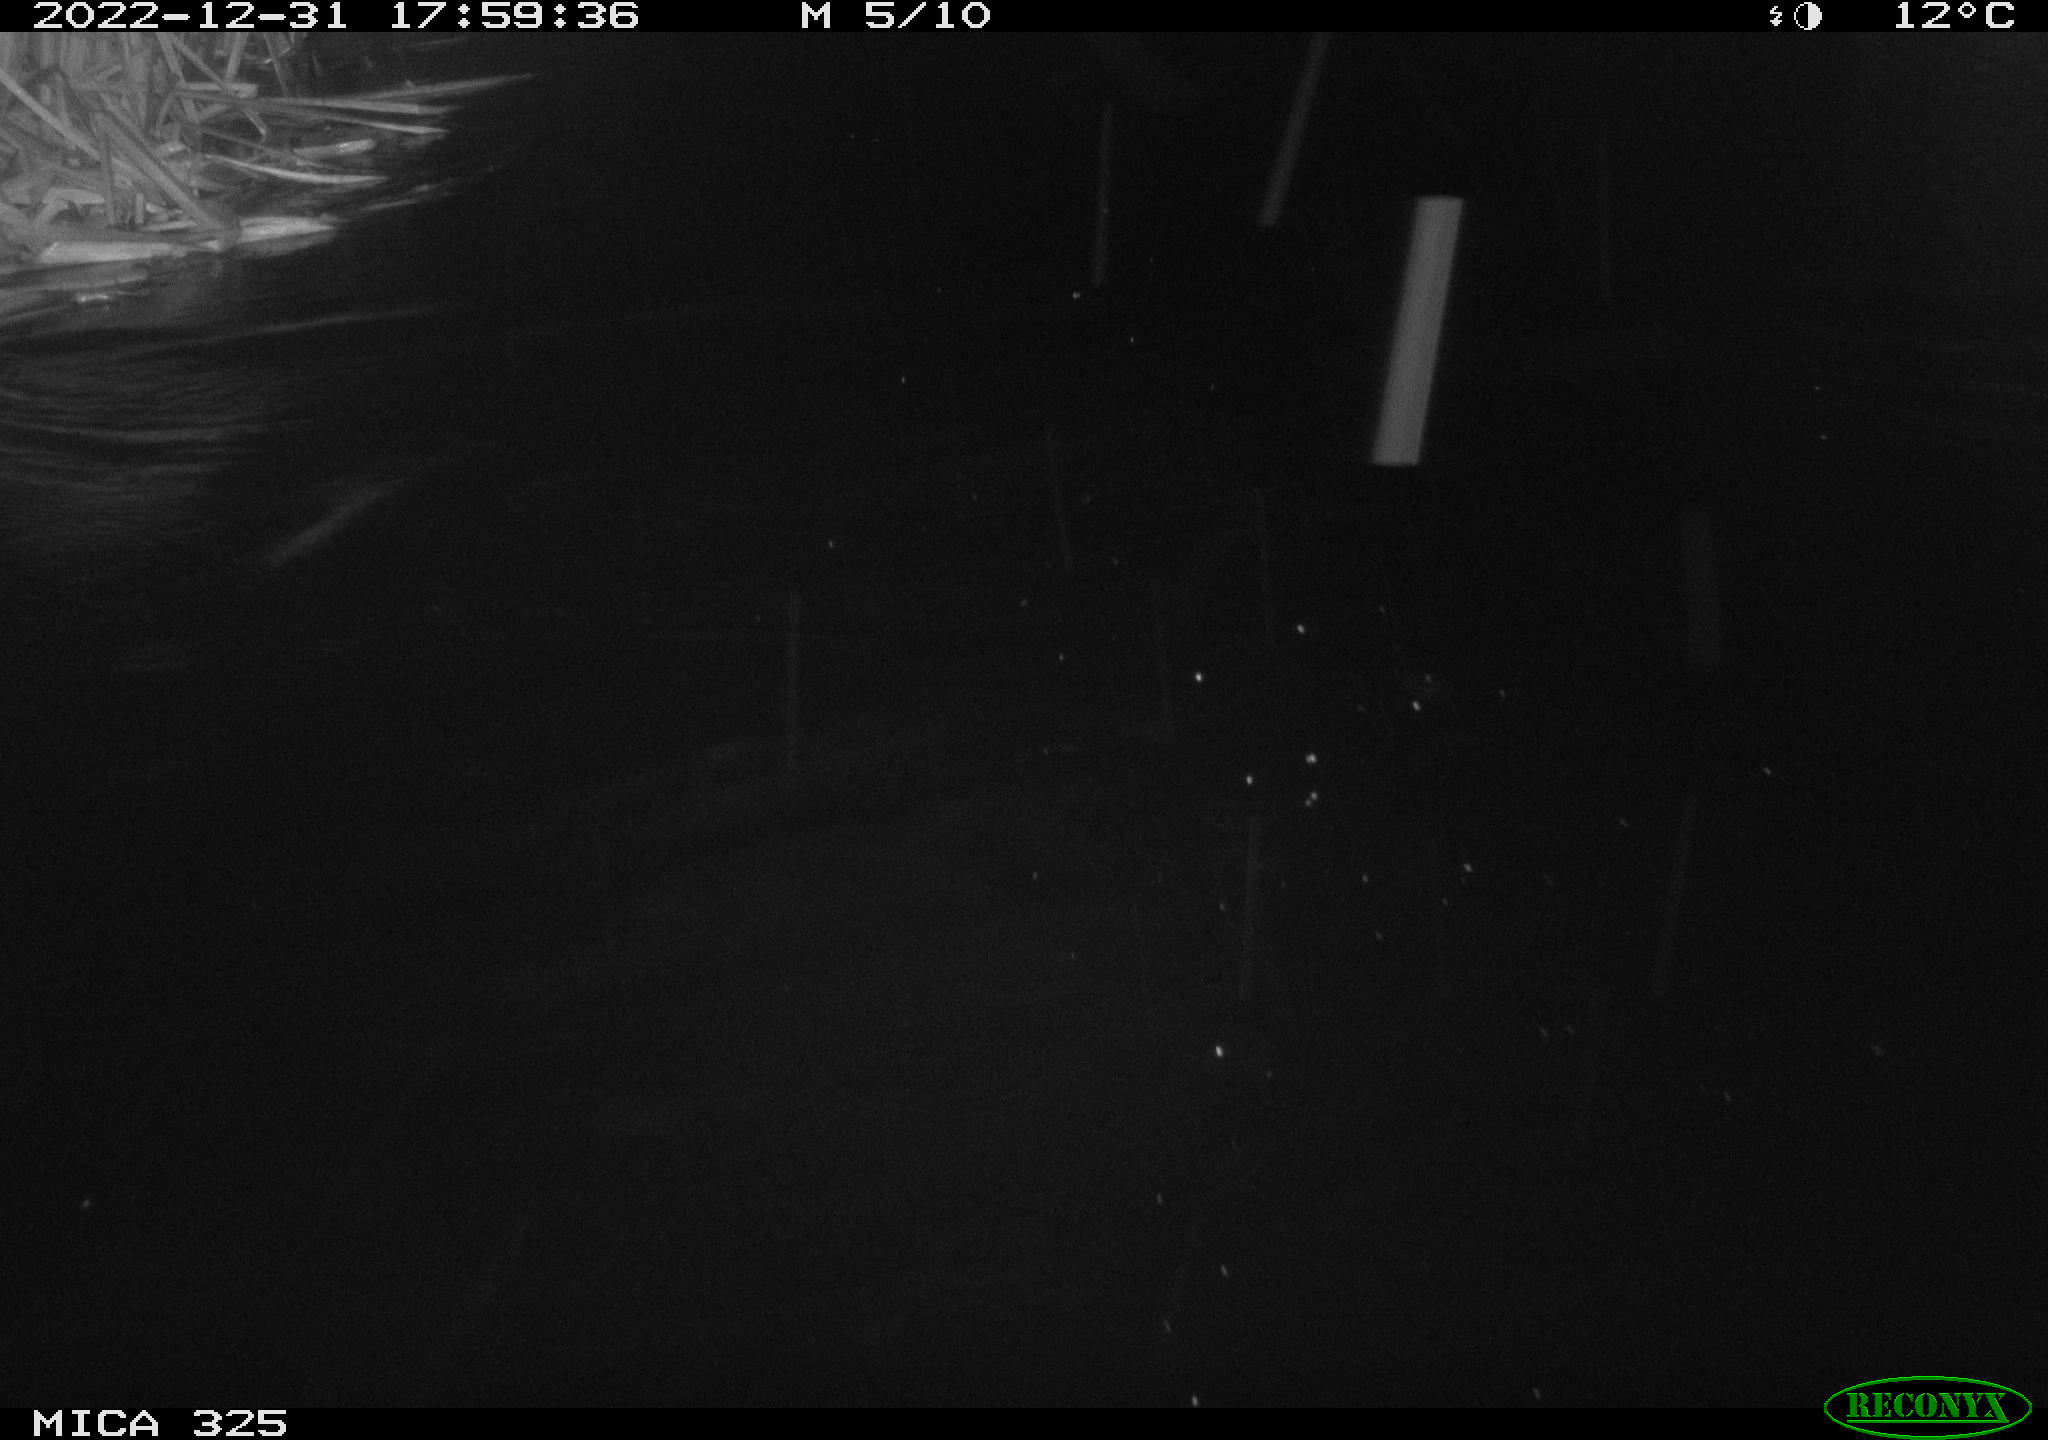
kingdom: Animalia
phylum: Chordata
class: Mammalia
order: Rodentia
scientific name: Rodentia
